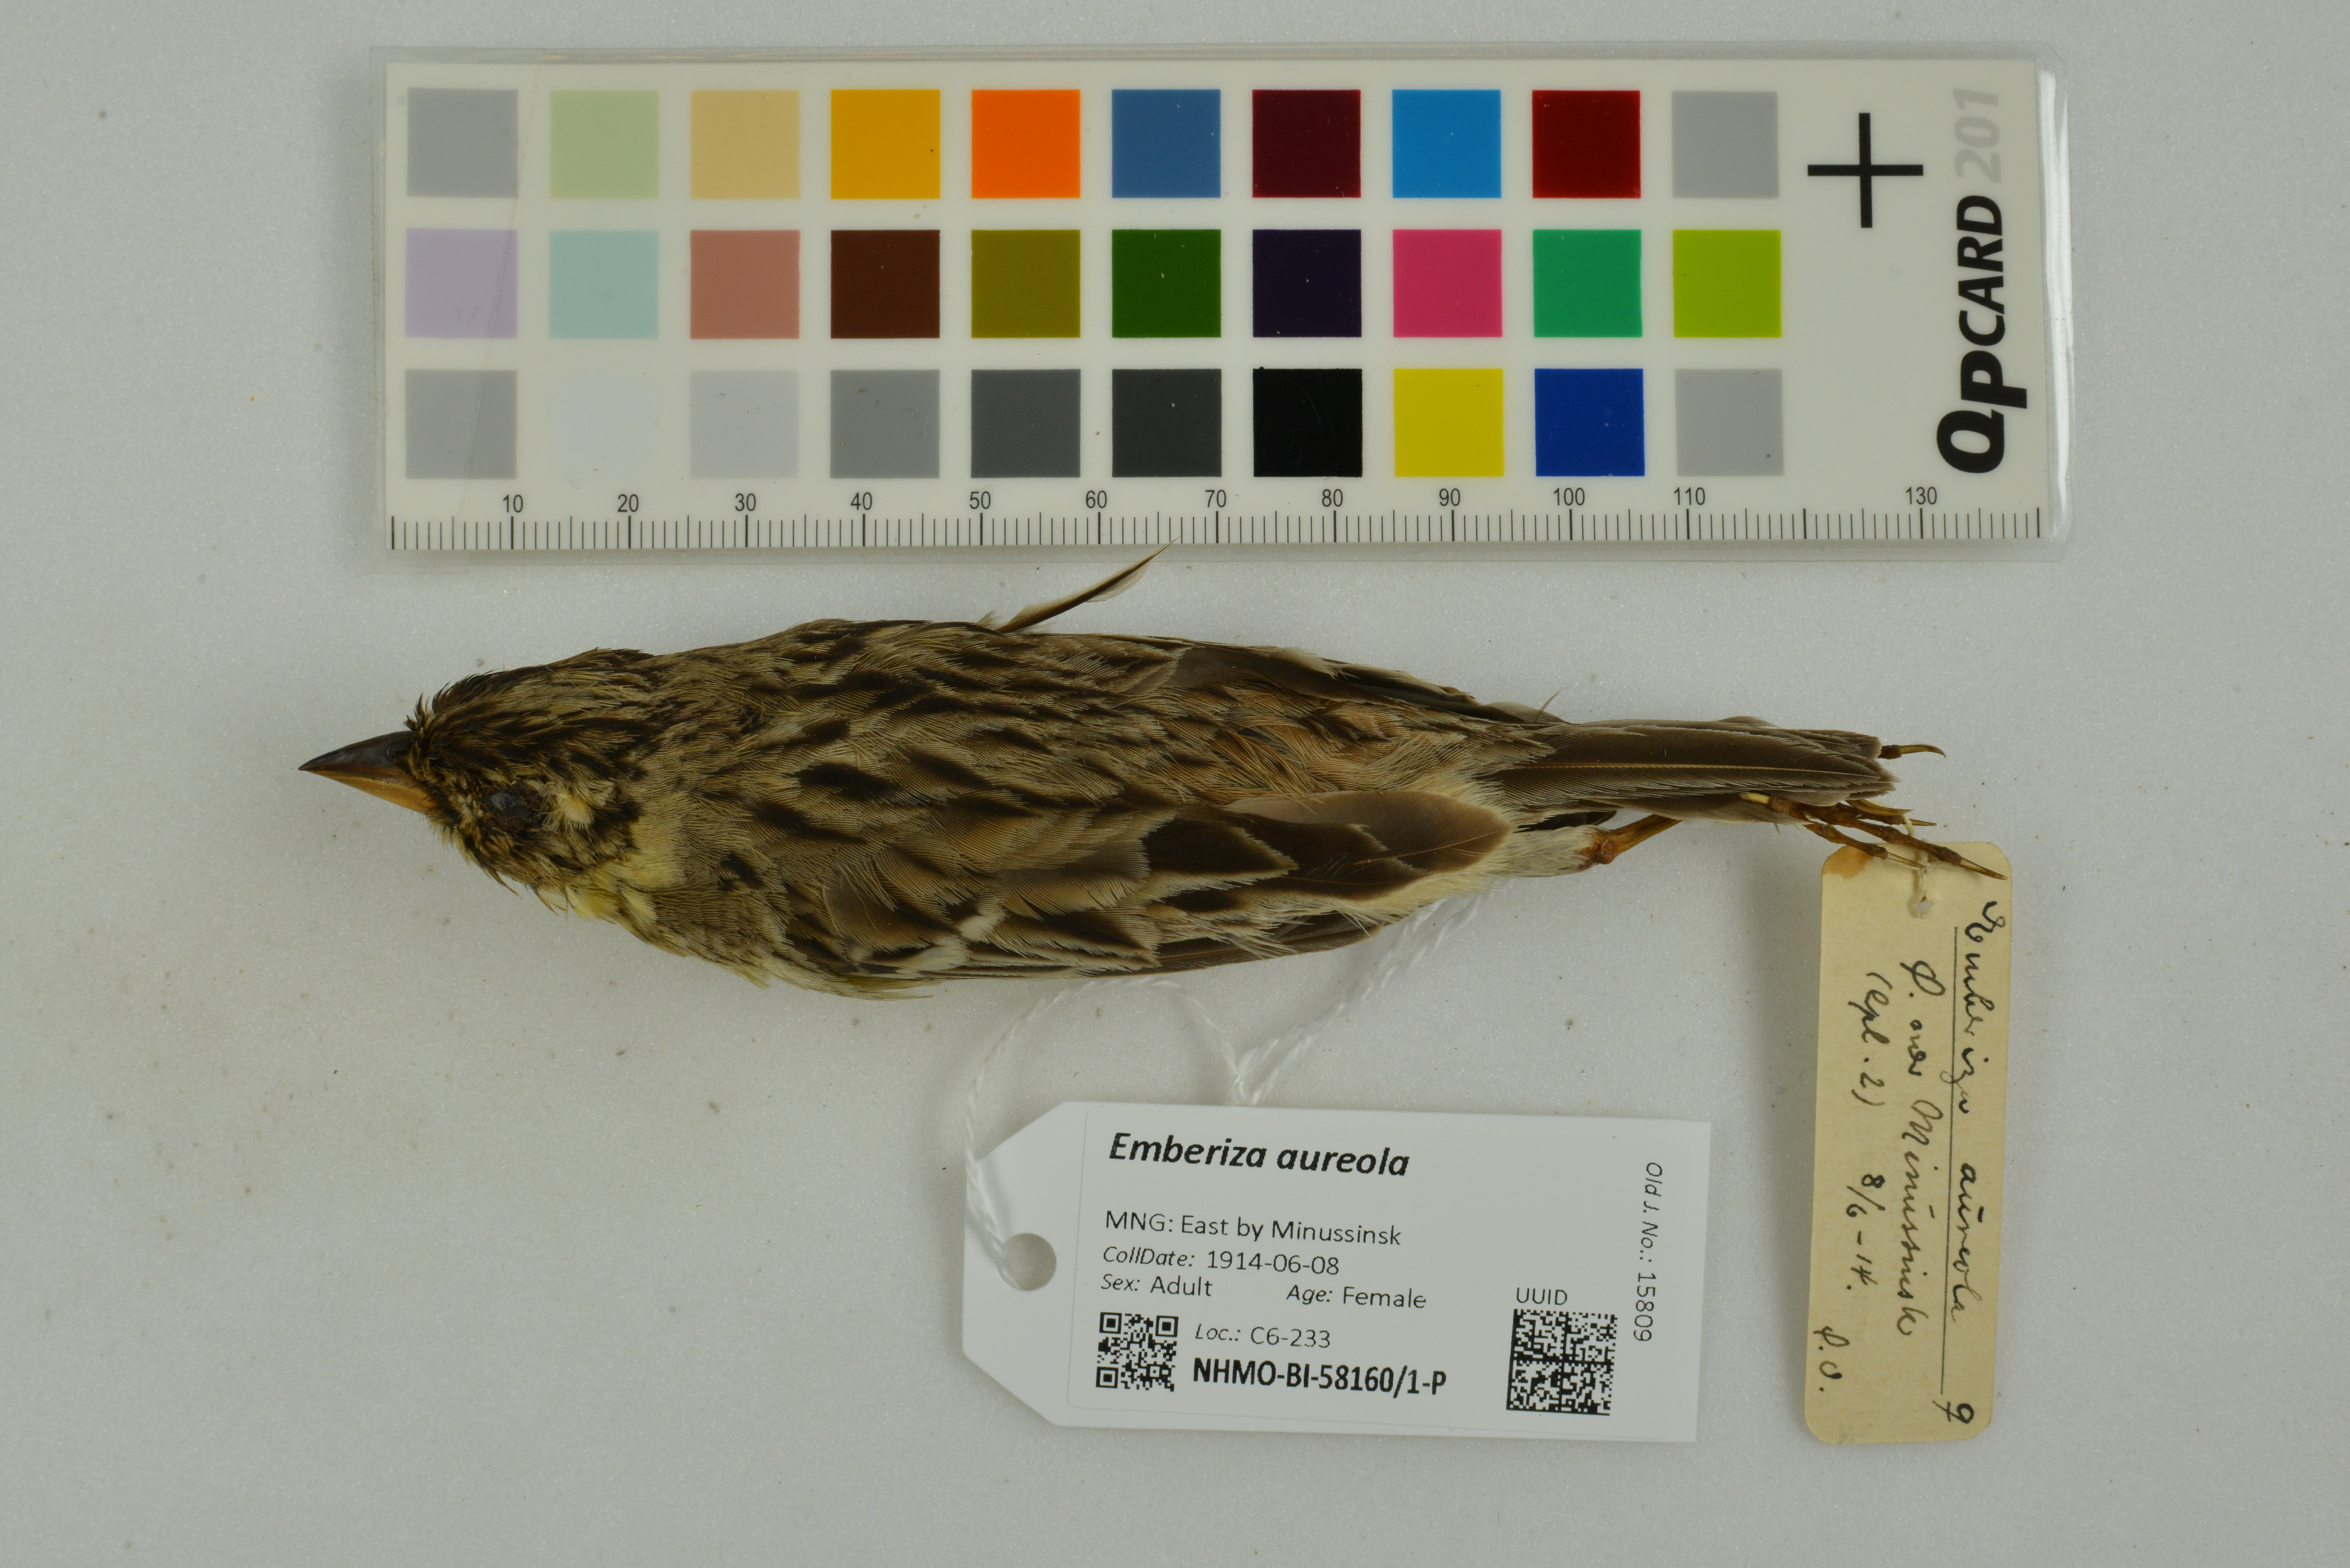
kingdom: Animalia
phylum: Chordata
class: Aves
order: Passeriformes
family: Emberizidae
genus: Emberiza
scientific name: Emberiza aureola
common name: Yellow-breasted bunting
